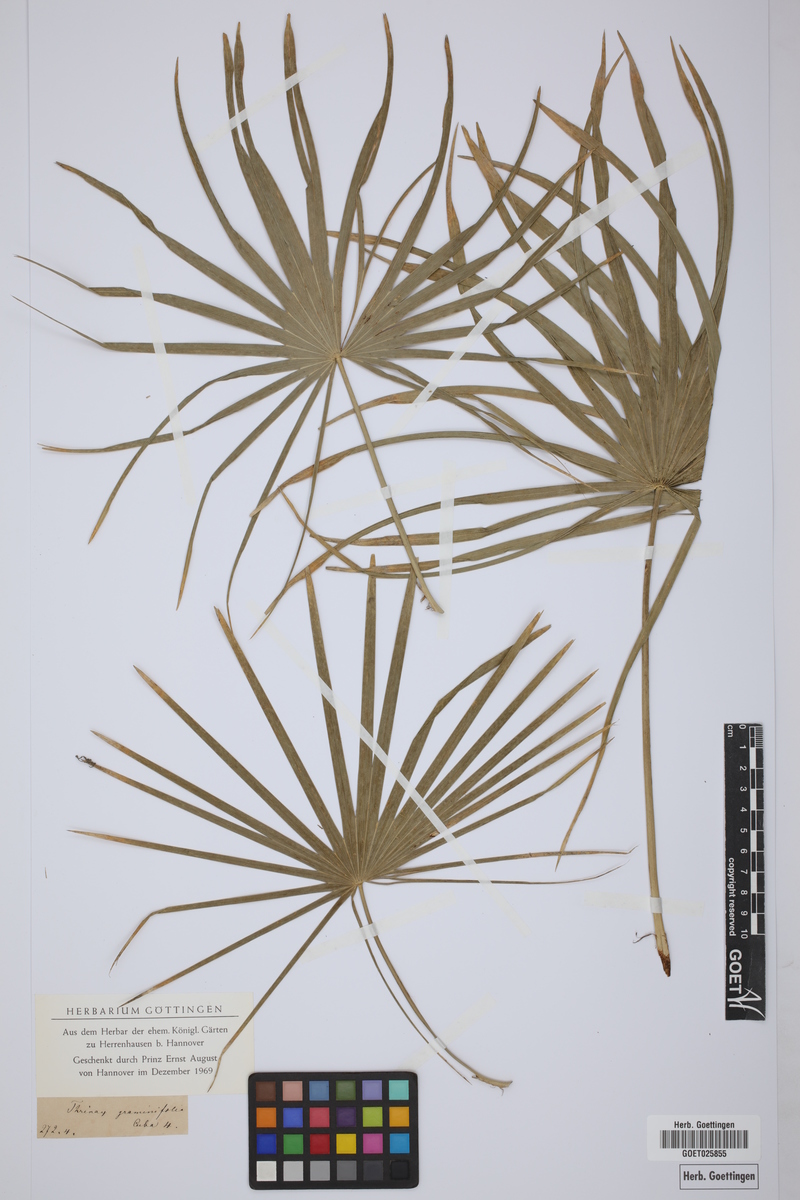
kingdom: Plantae
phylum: Tracheophyta
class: Liliopsida
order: Arecales
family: Arecaceae
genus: Coccothrinax
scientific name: Coccothrinax argentea
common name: Broom palm
